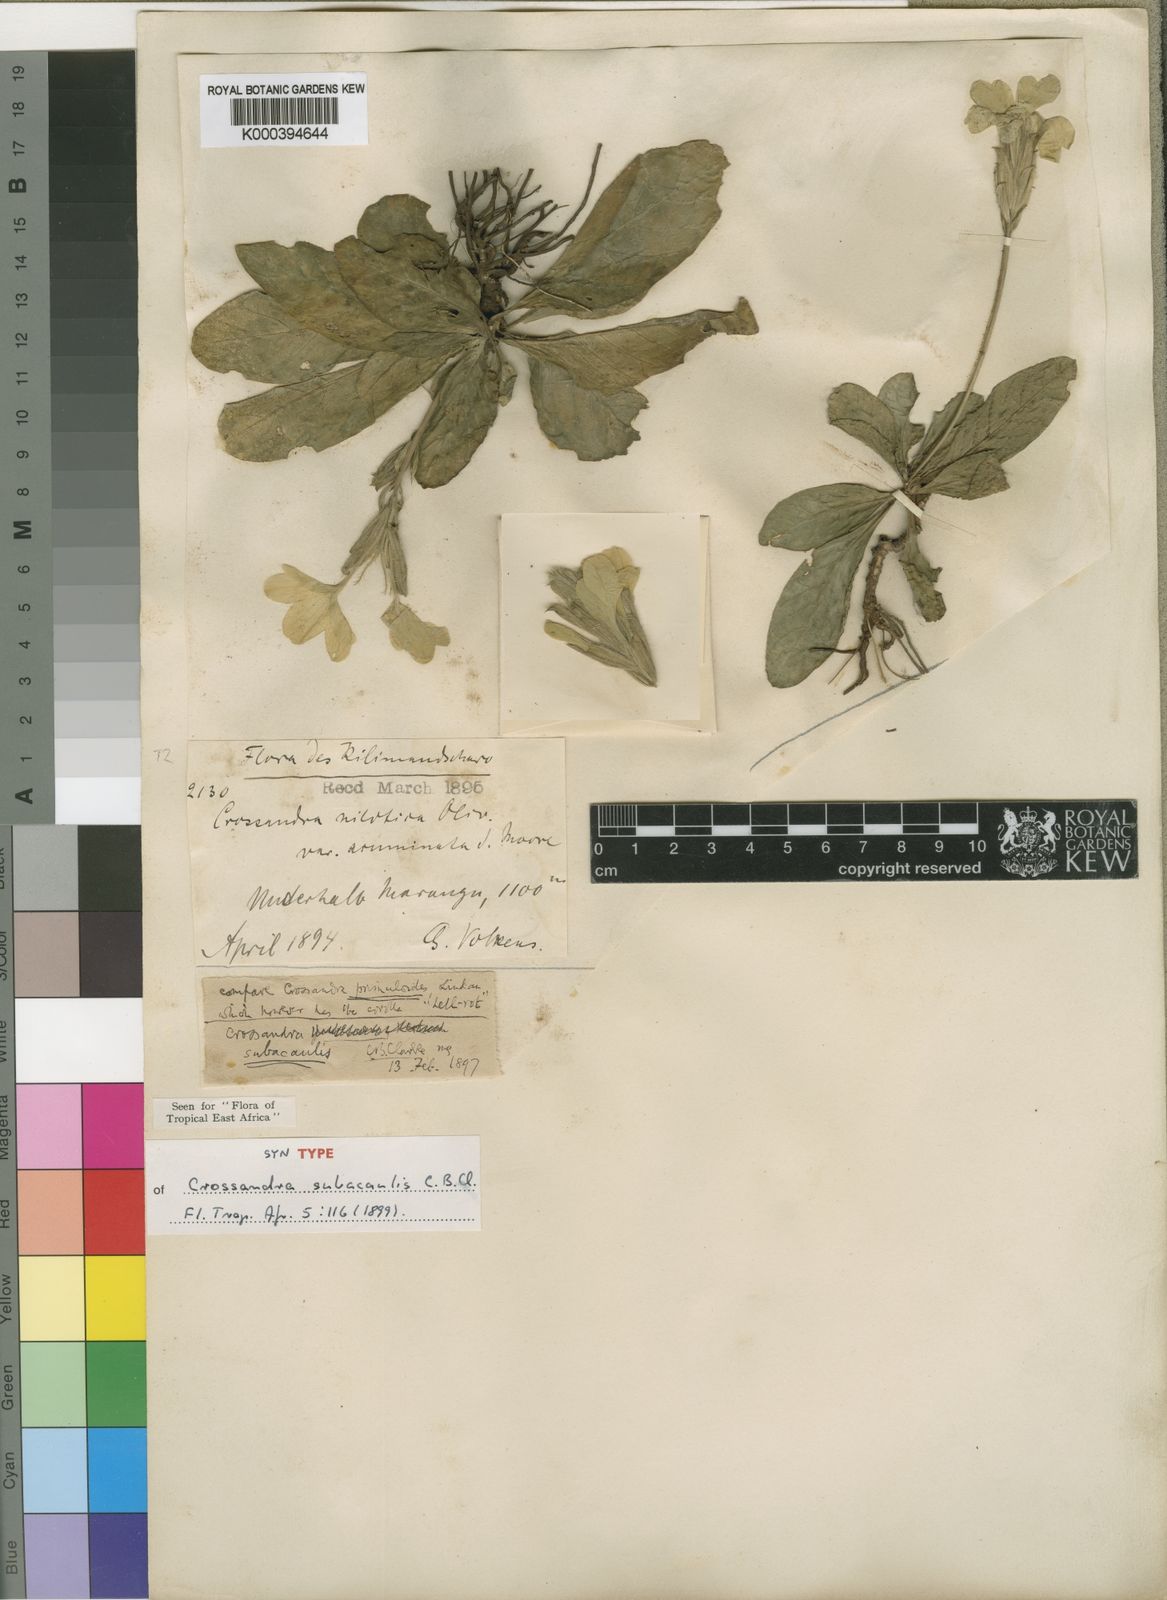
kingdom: Plantae
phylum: Tracheophyta
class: Magnoliopsida
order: Lamiales
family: Acanthaceae
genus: Crossandra
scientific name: Crossandra subacaulis
